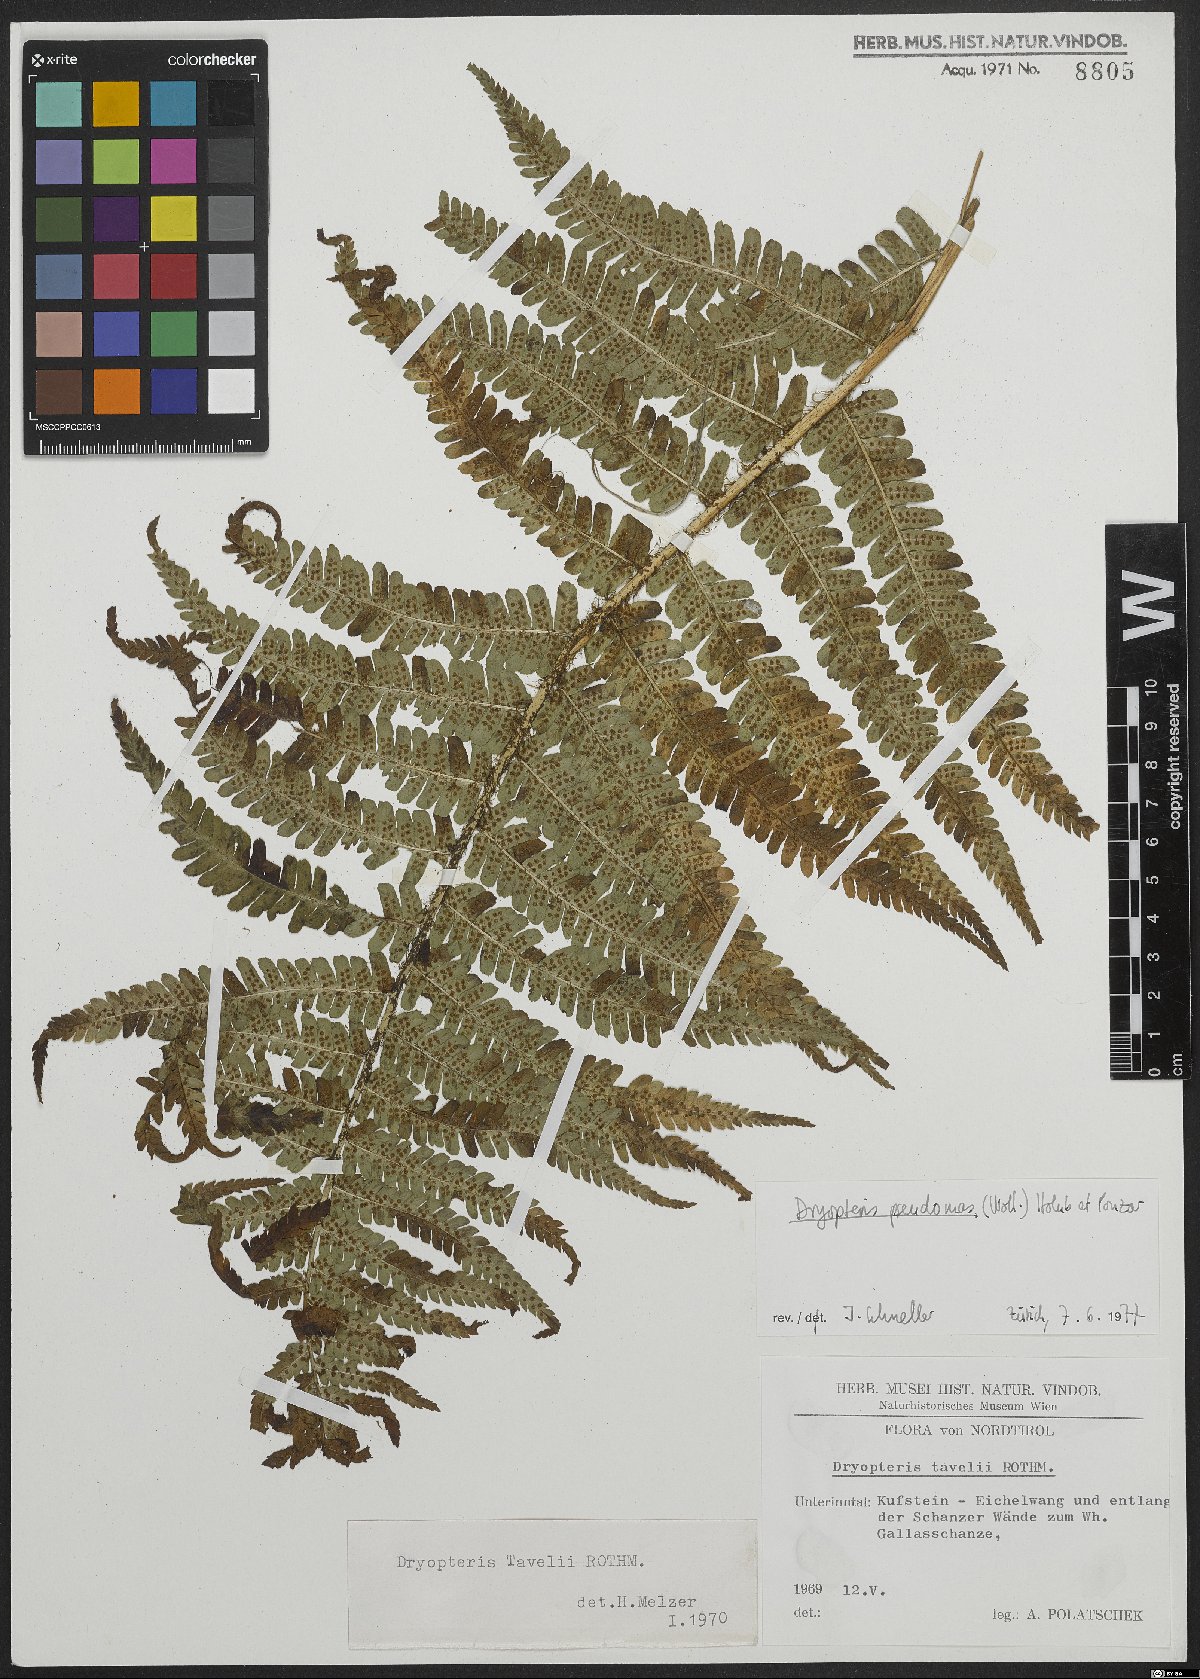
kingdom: Plantae
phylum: Tracheophyta
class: Polypodiopsida
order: Polypodiales
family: Dryopteridaceae
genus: Dryopteris
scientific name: Dryopteris borreri
